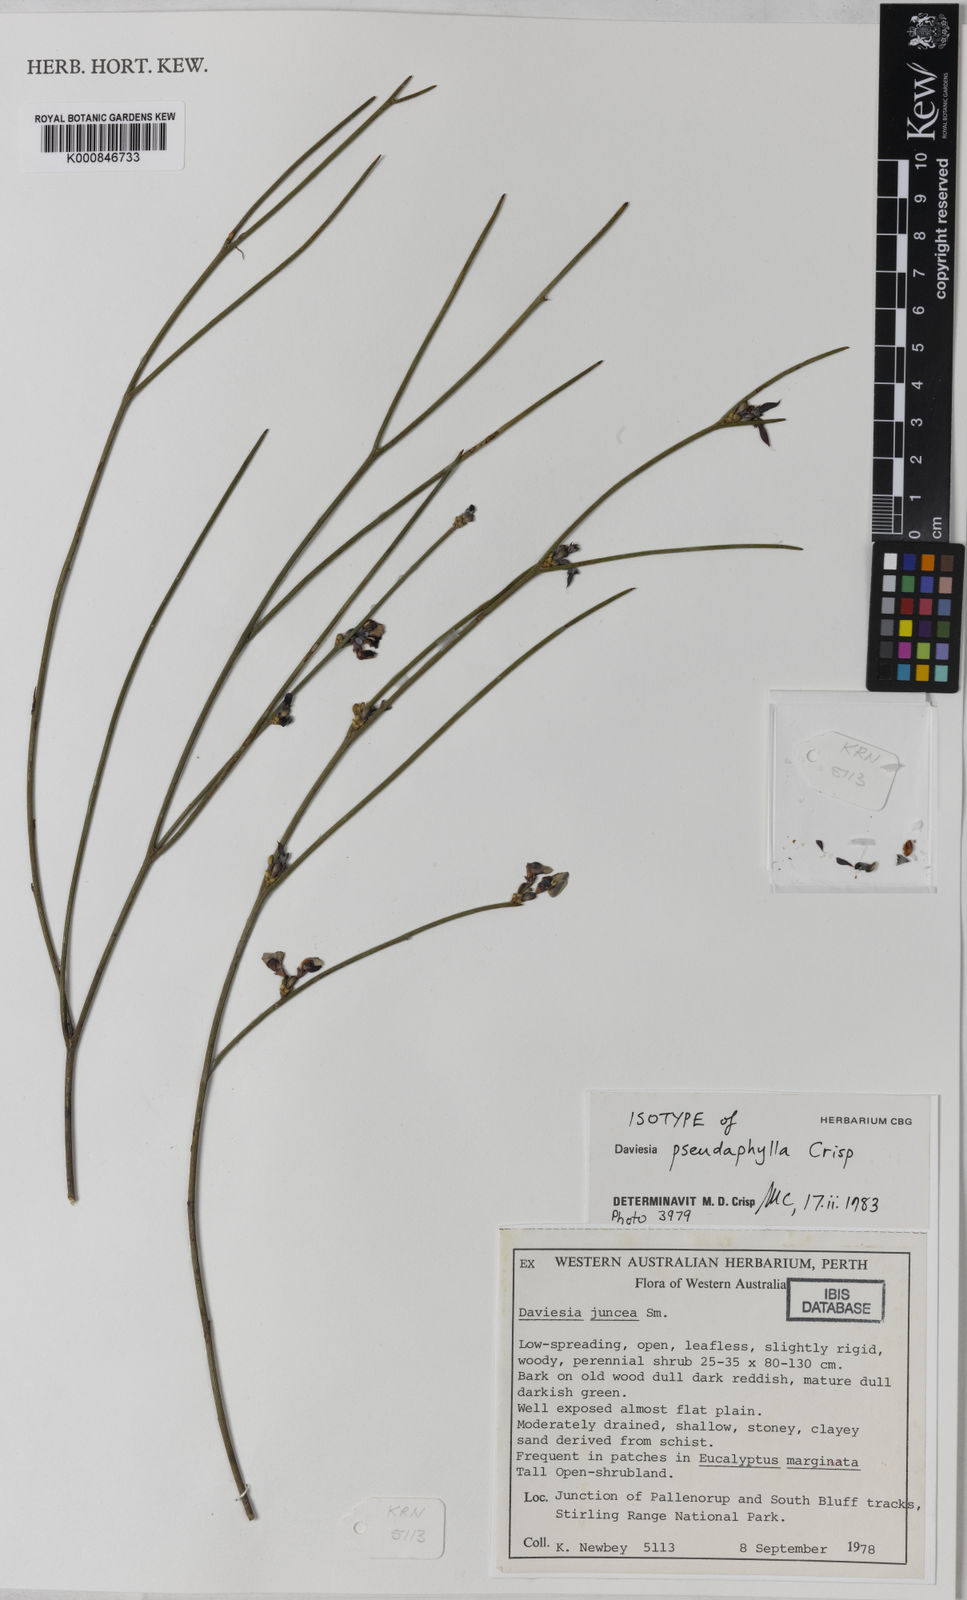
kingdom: Plantae
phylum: Tracheophyta
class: Magnoliopsida
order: Fabales
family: Fabaceae
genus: Daviesia
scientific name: Daviesia pseudaphylla
